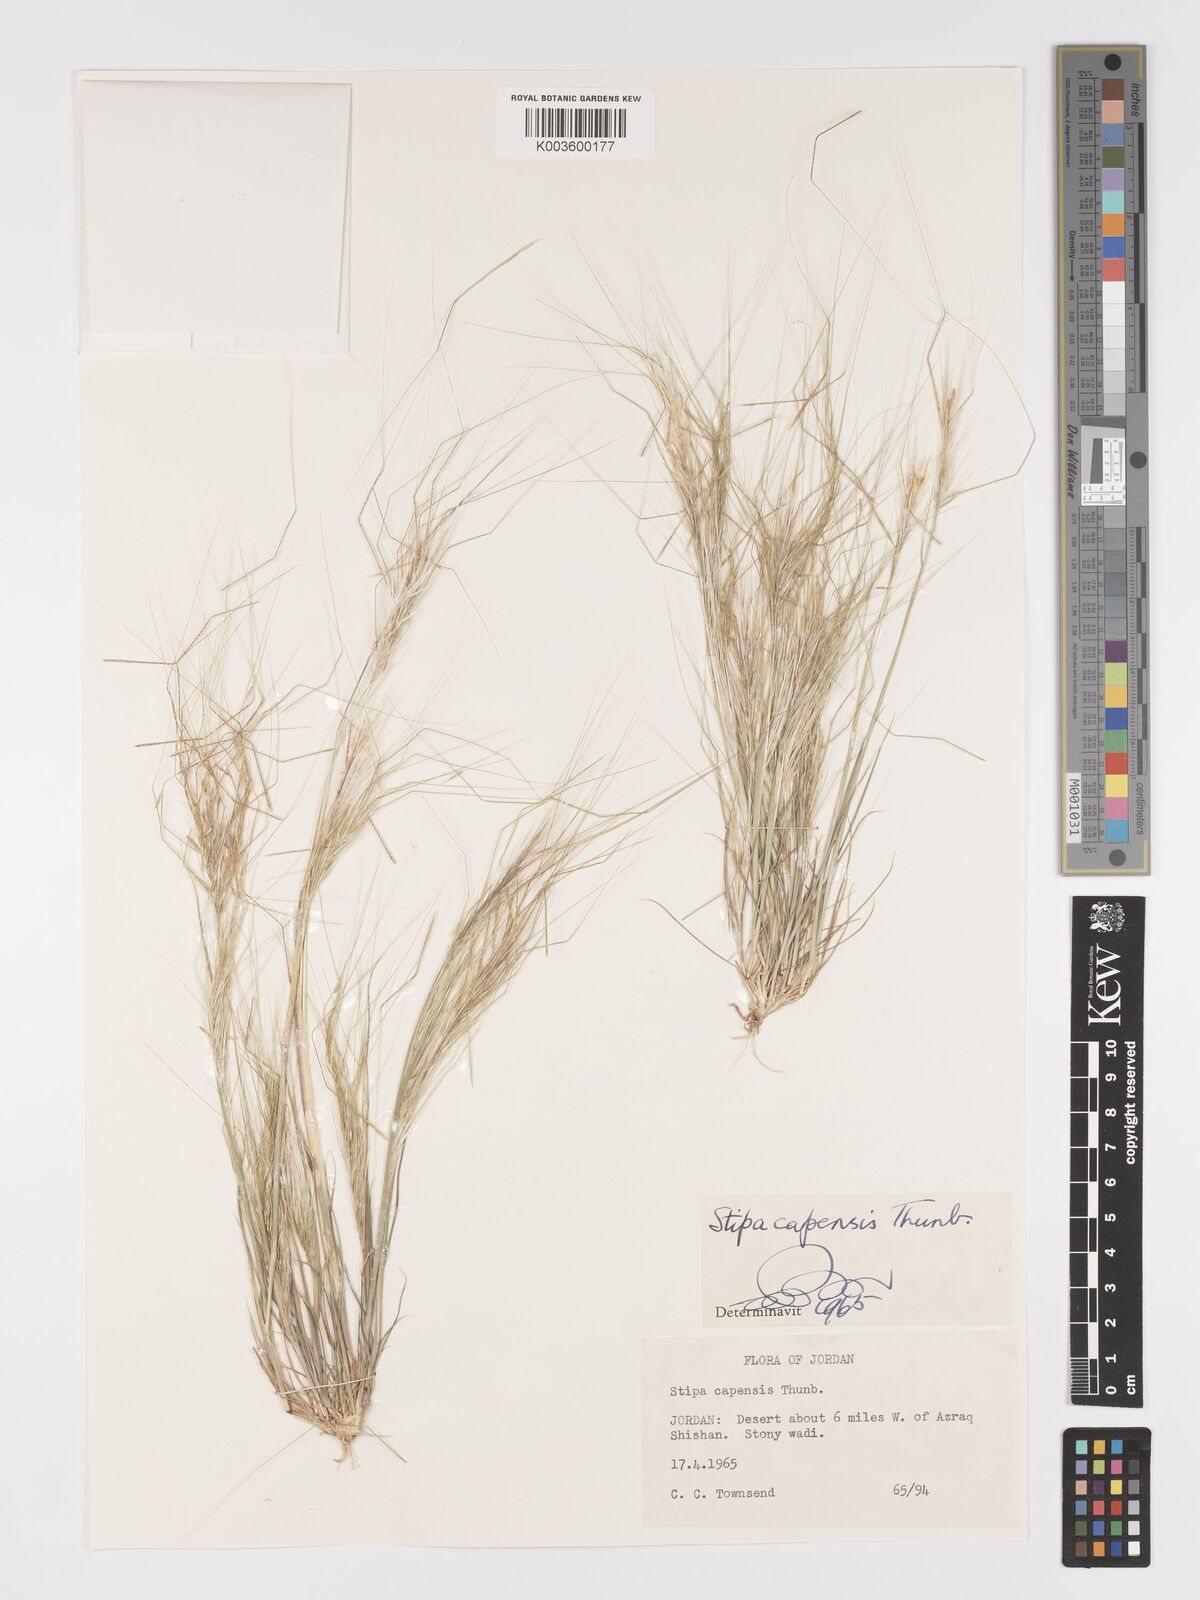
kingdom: Plantae
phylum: Tracheophyta
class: Liliopsida
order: Poales
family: Poaceae
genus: Stipellula
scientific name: Stipellula capensis
